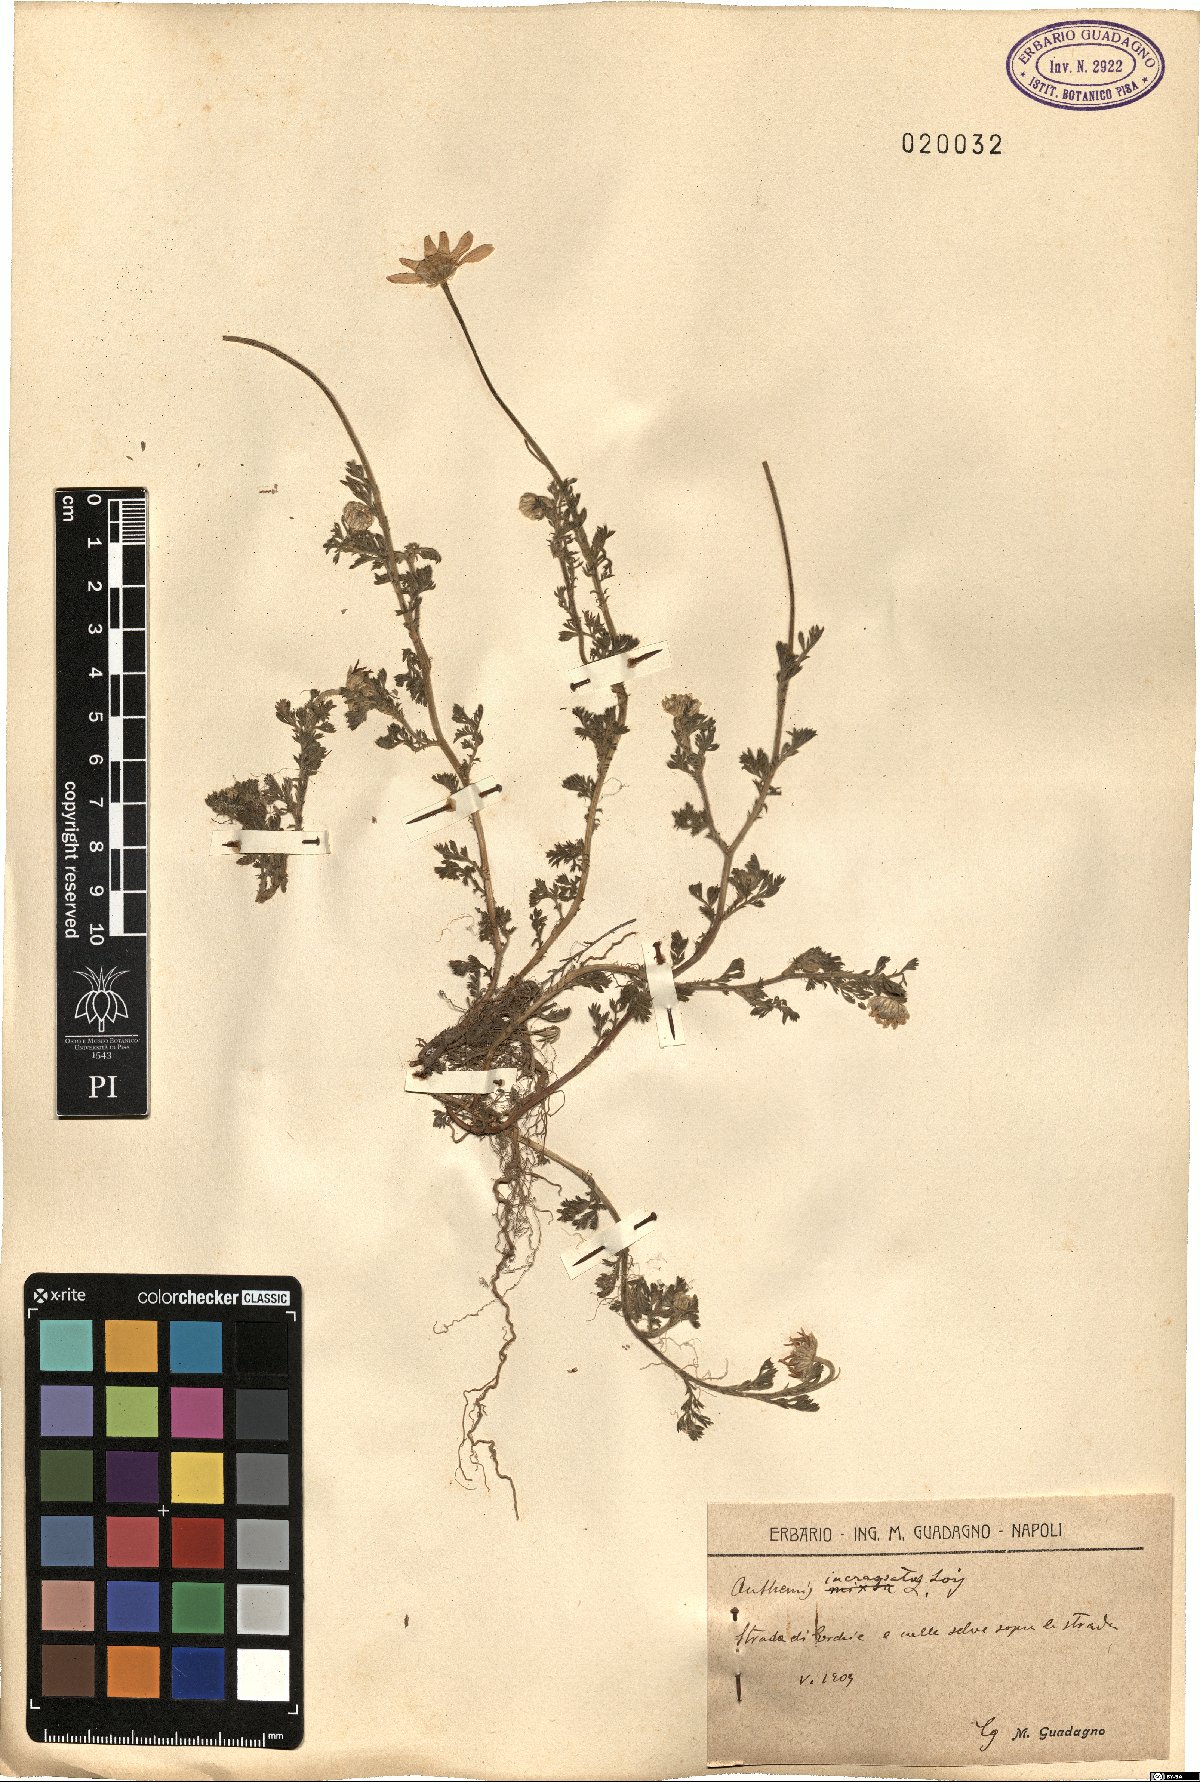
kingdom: Plantae
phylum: Tracheophyta
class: Magnoliopsida
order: Asterales
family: Asteraceae
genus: Anthemis
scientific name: Anthemis arvensis
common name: Corn chamomile
